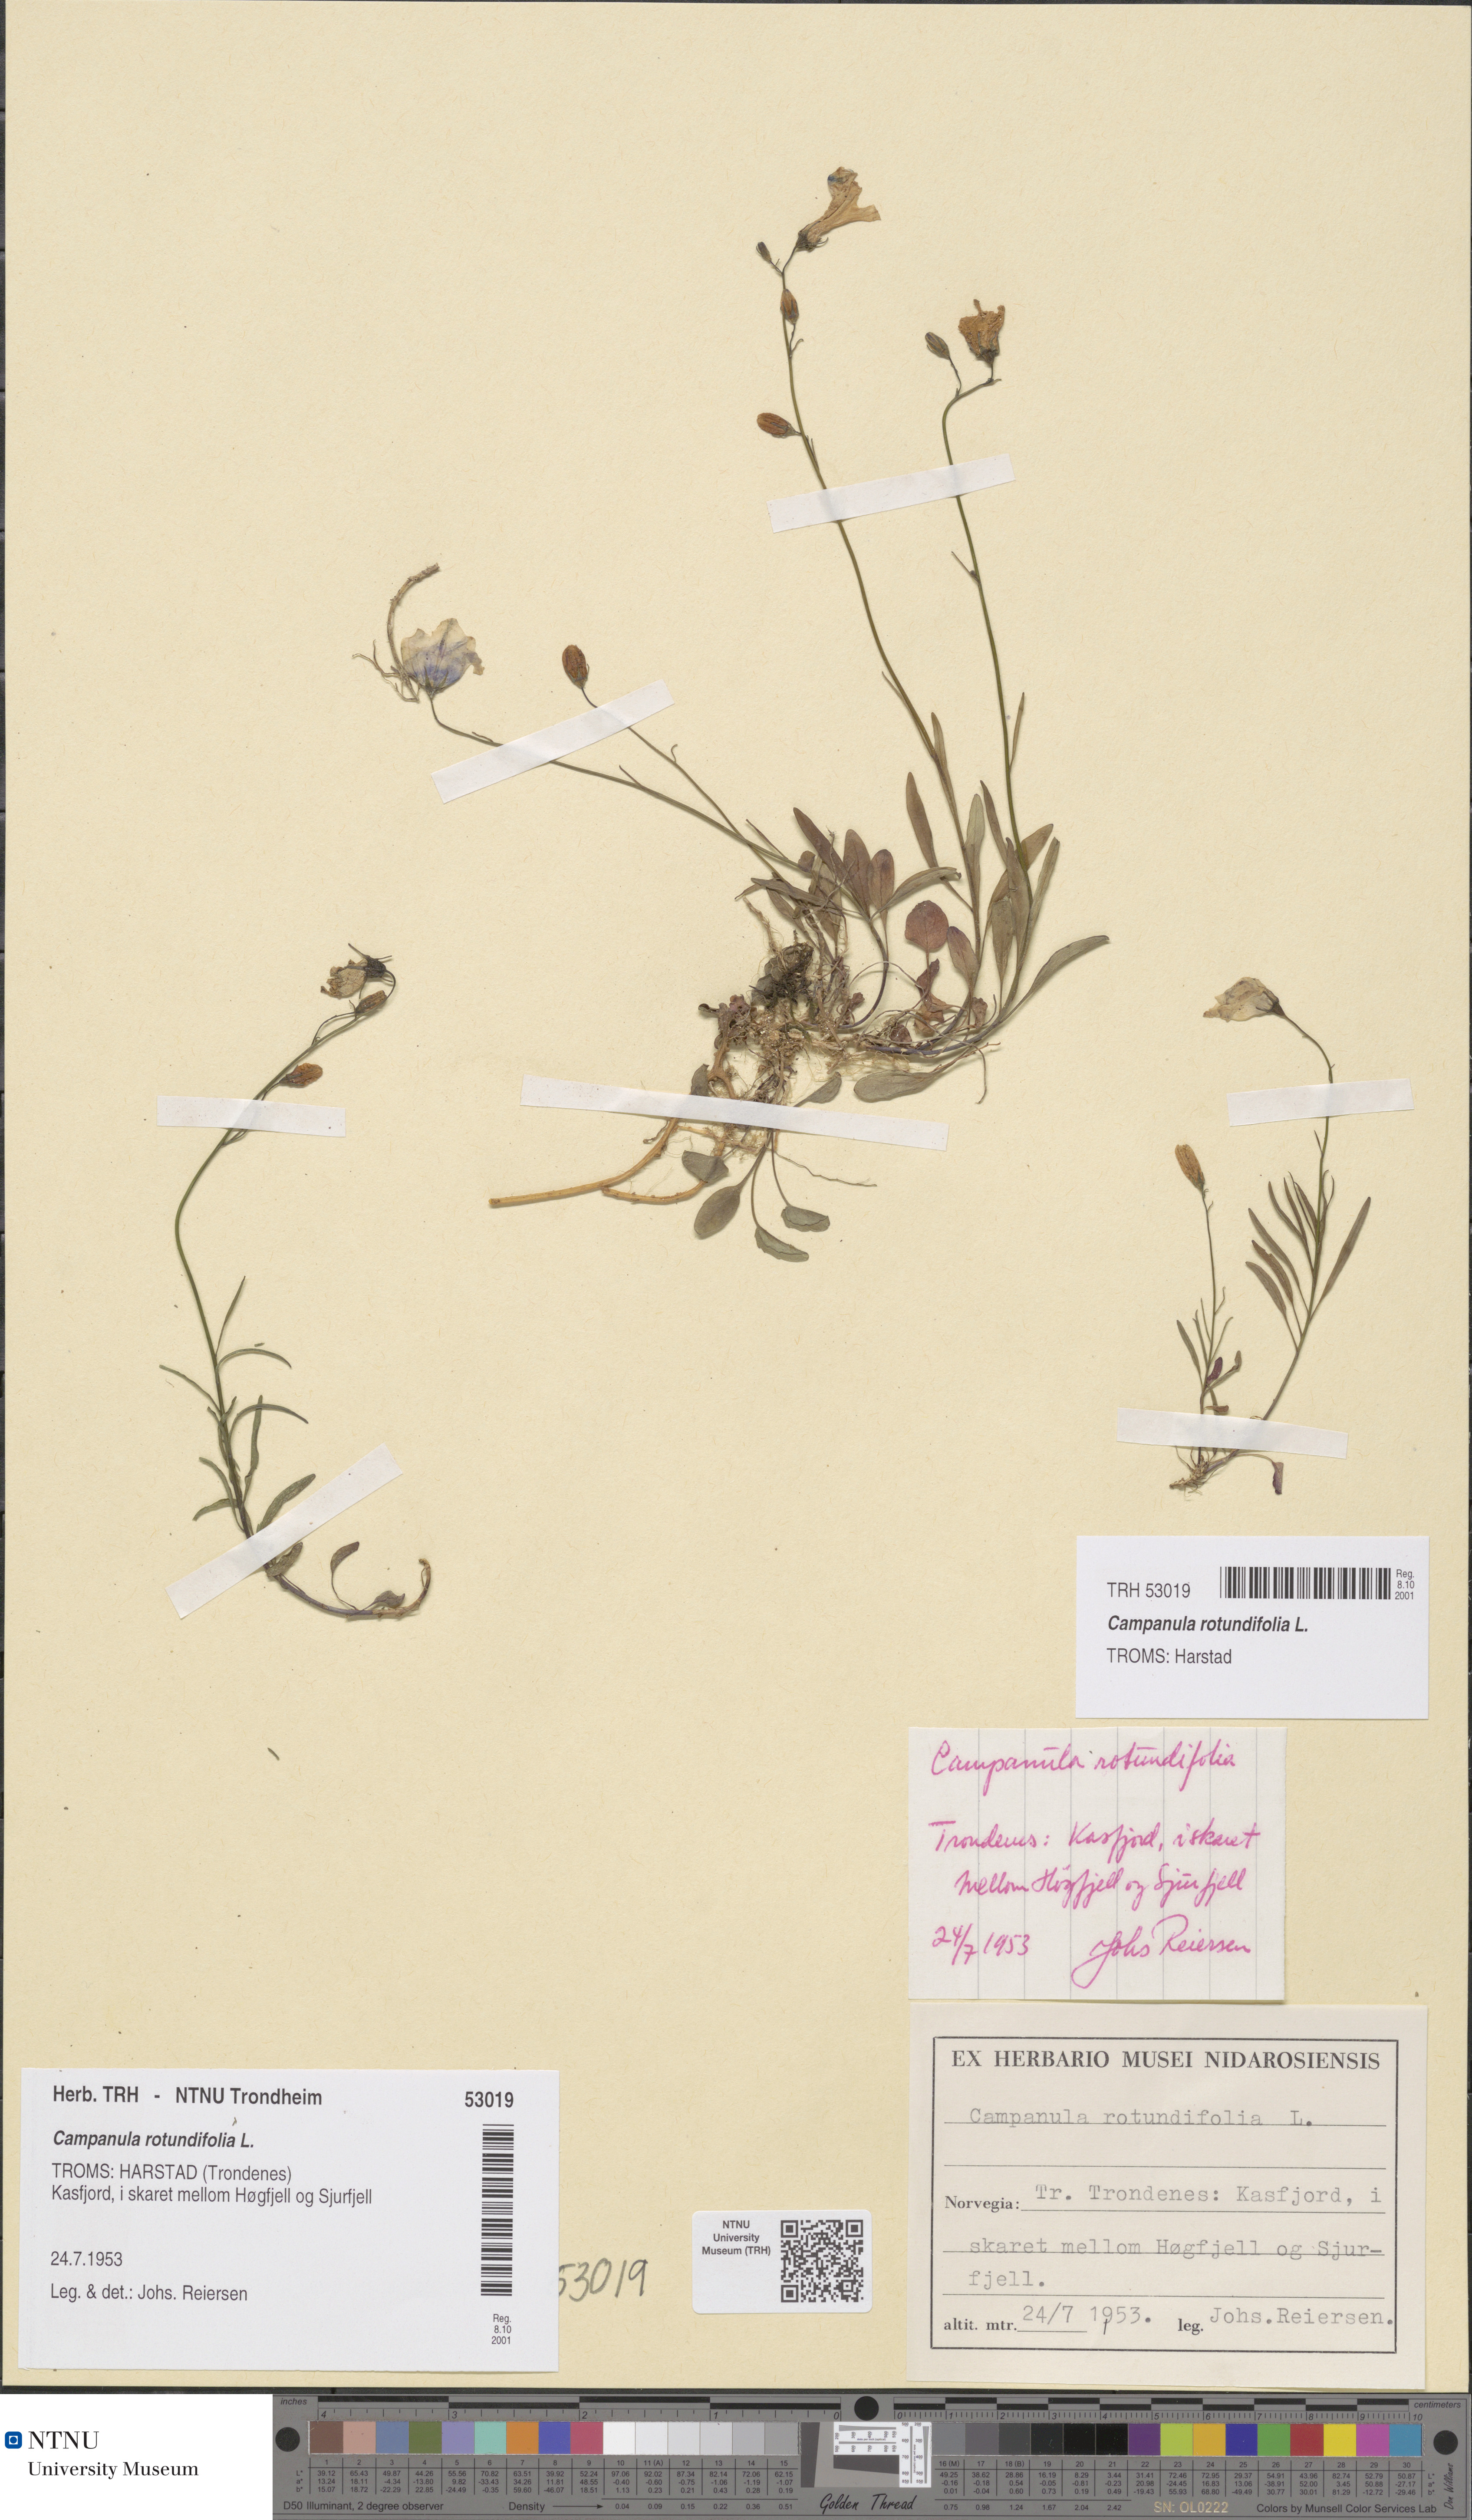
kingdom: Plantae
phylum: Tracheophyta
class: Magnoliopsida
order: Asterales
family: Campanulaceae
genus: Campanula
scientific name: Campanula rotundifolia
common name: Harebell
